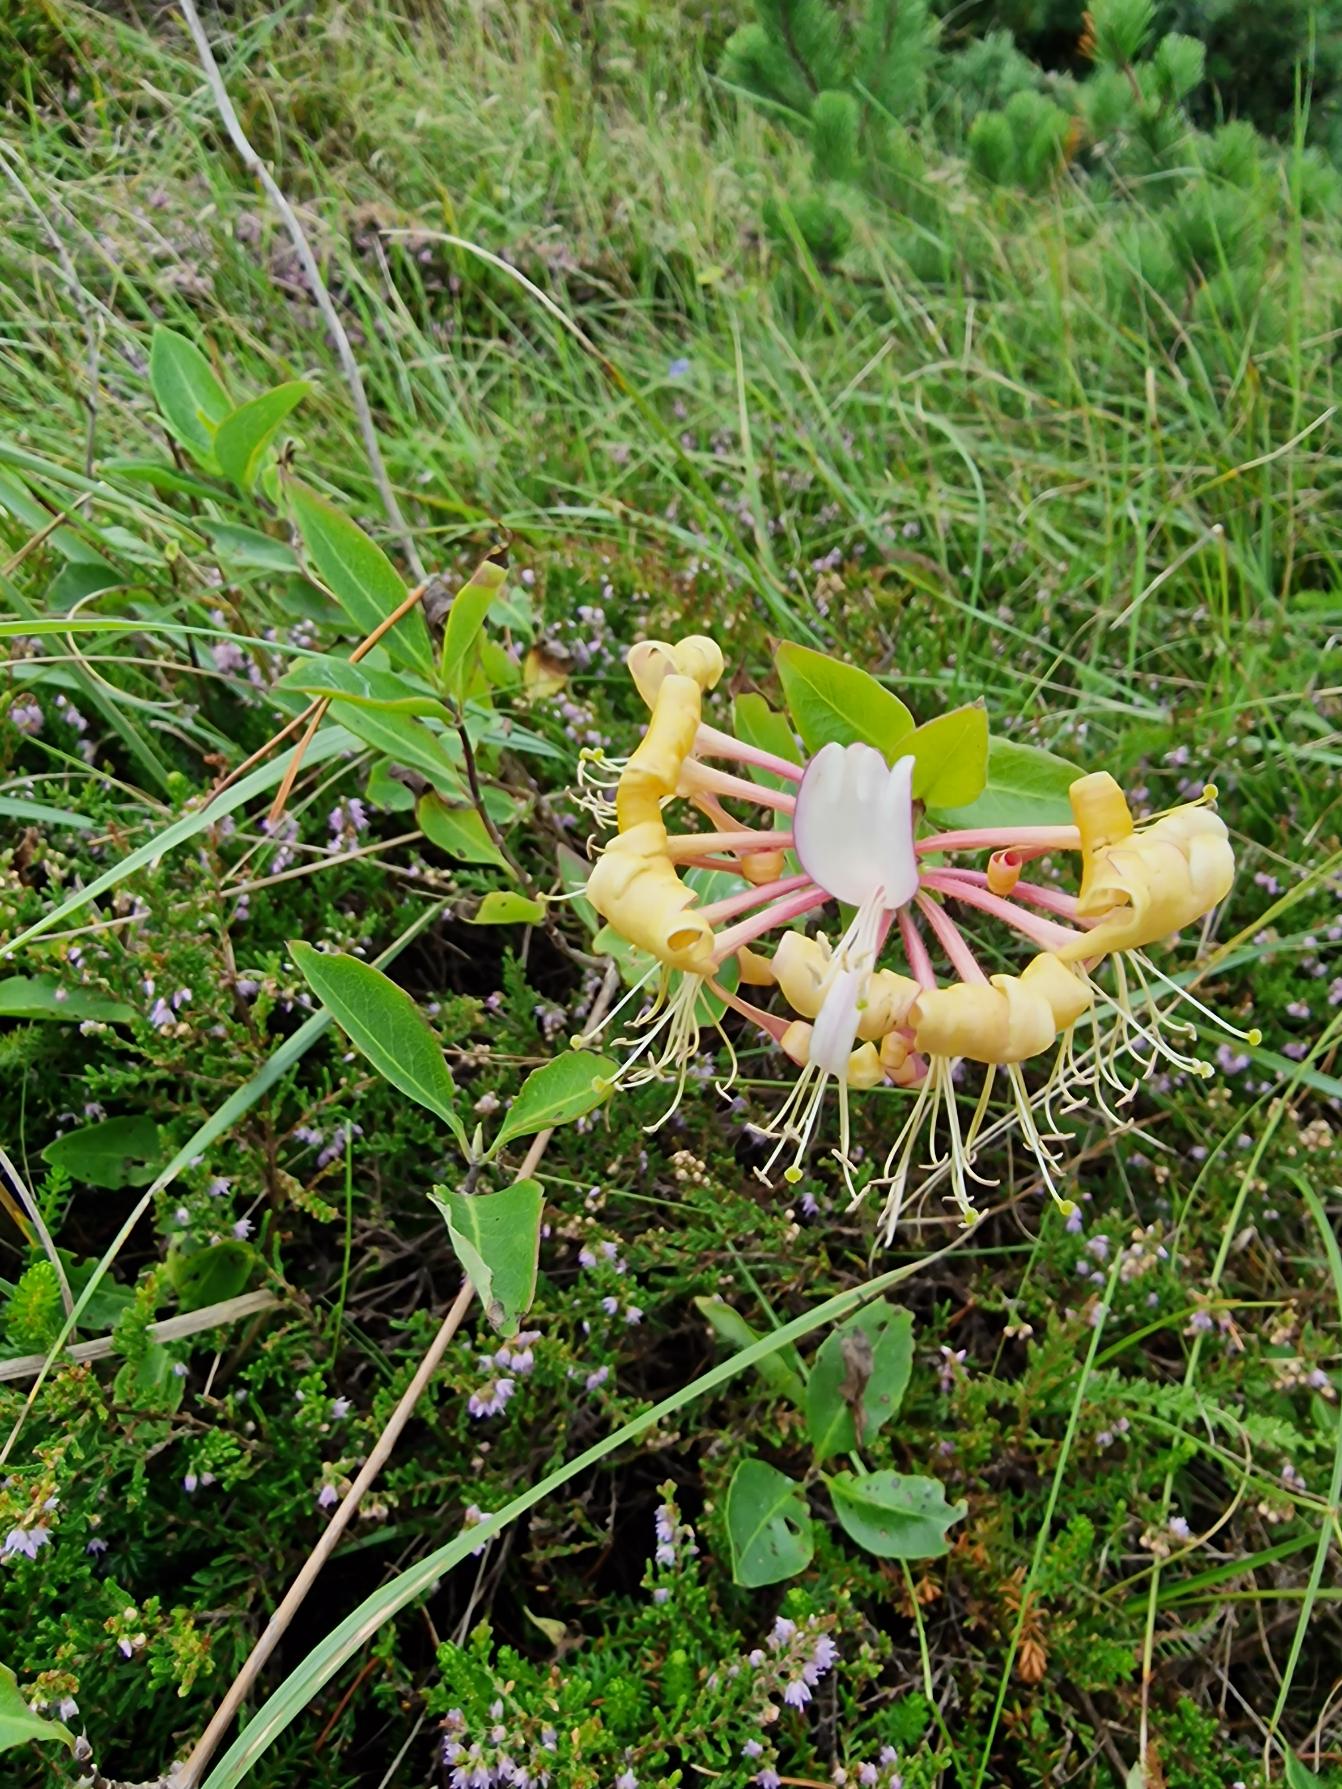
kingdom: Plantae
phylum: Tracheophyta
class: Magnoliopsida
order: Dipsacales
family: Caprifoliaceae
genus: Lonicera
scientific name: Lonicera periclymenum
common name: Almindelig gedeblad
